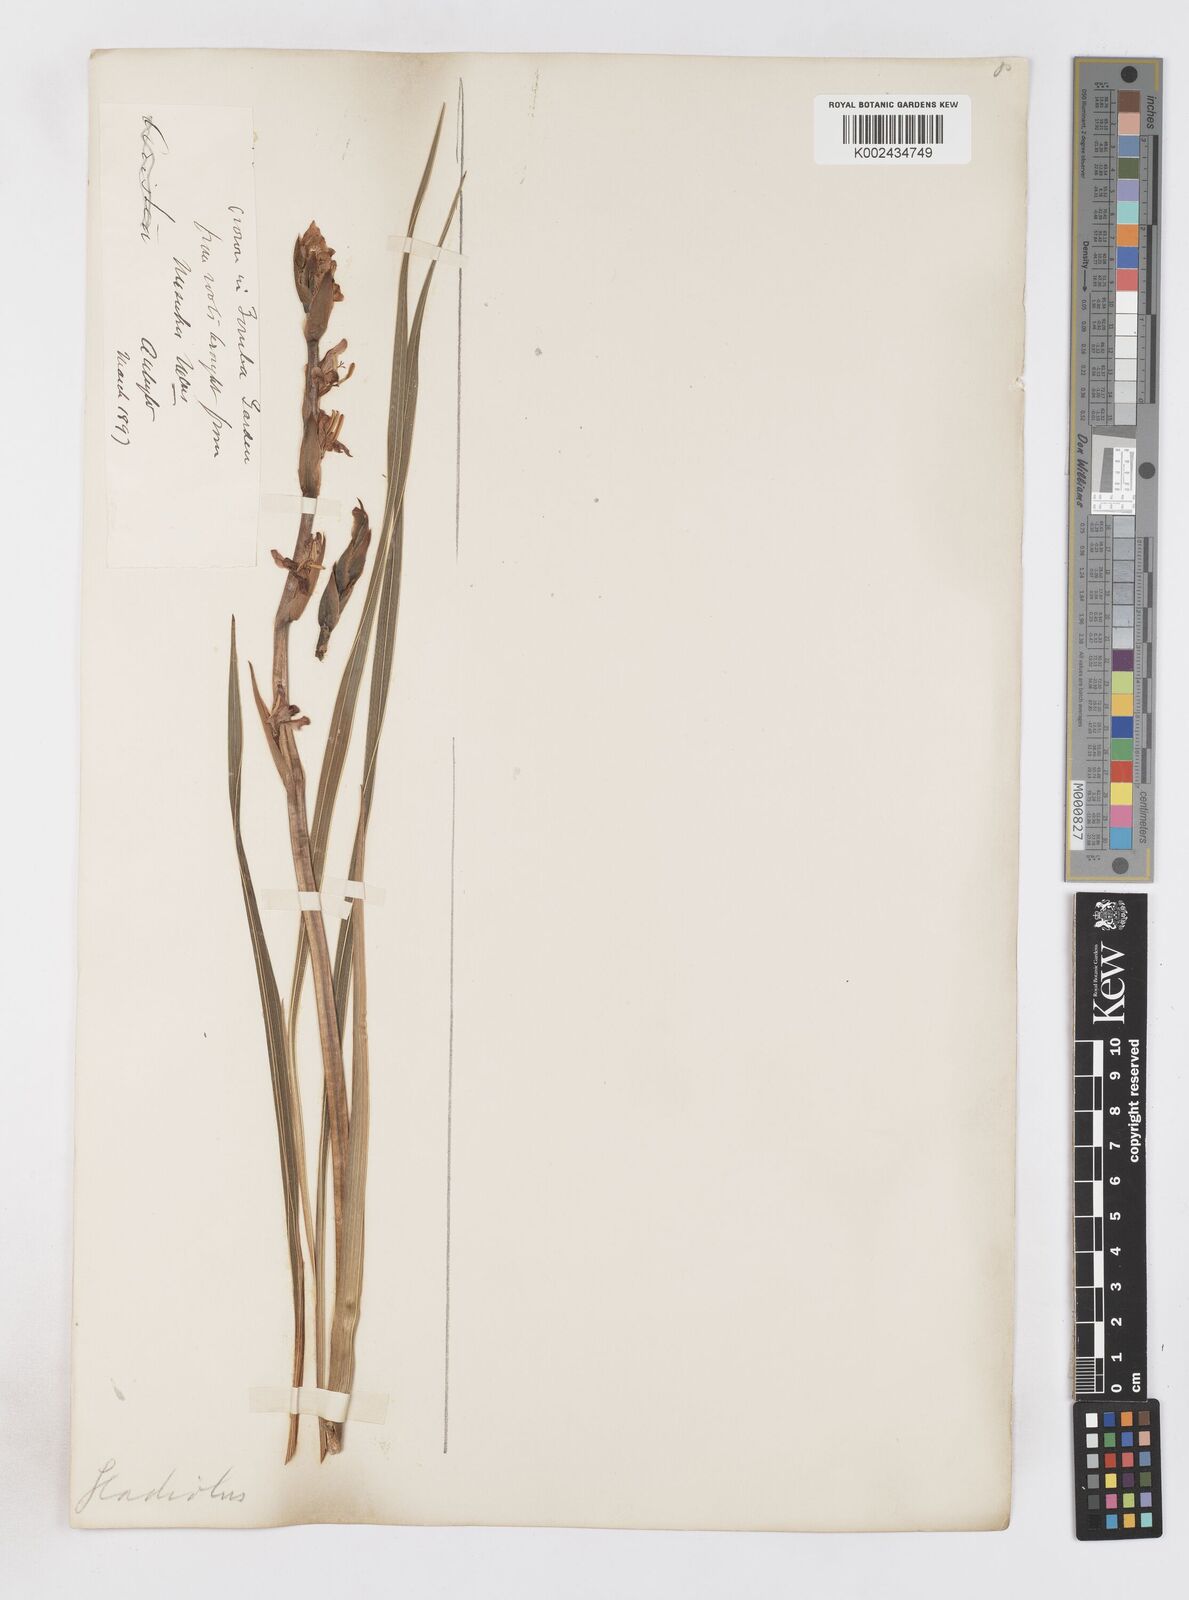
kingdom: Plantae
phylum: Tracheophyta
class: Liliopsida
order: Asparagales
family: Iridaceae
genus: Gladiolus
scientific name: Gladiolus
